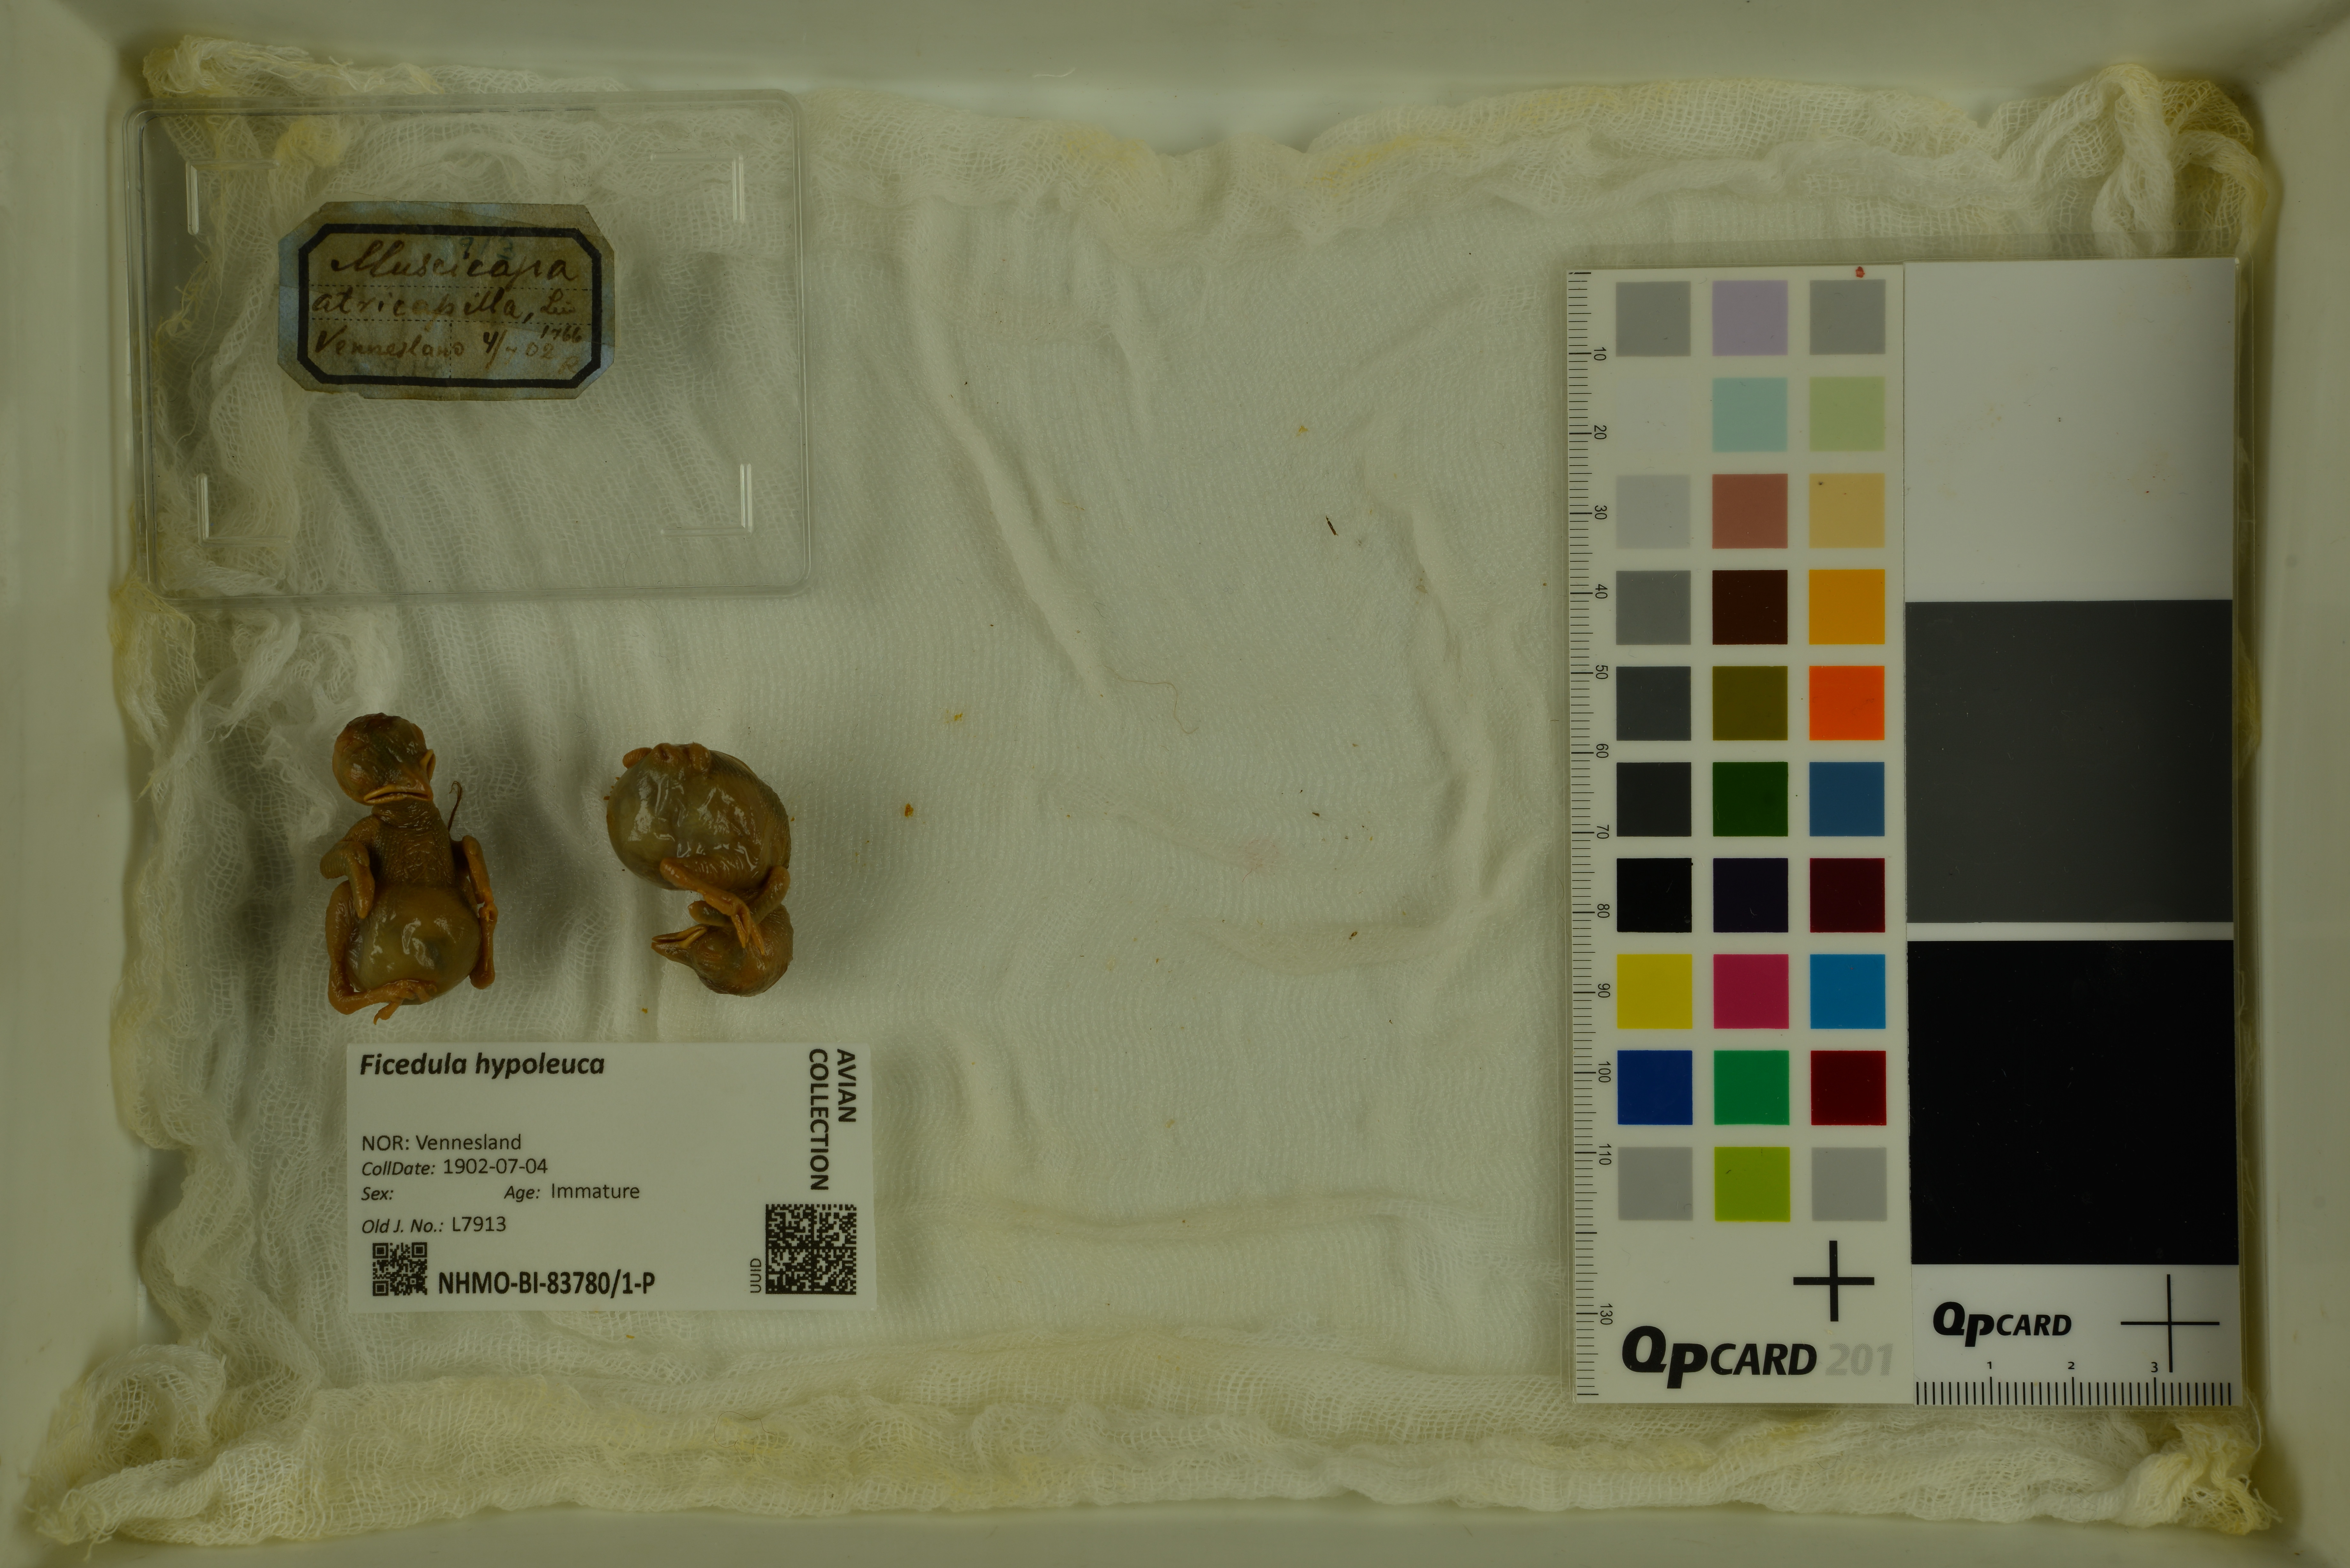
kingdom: Animalia
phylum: Chordata
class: Aves
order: Passeriformes
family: Muscicapidae
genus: Ficedula
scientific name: Ficedula hypoleuca
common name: European pied flycatcher
